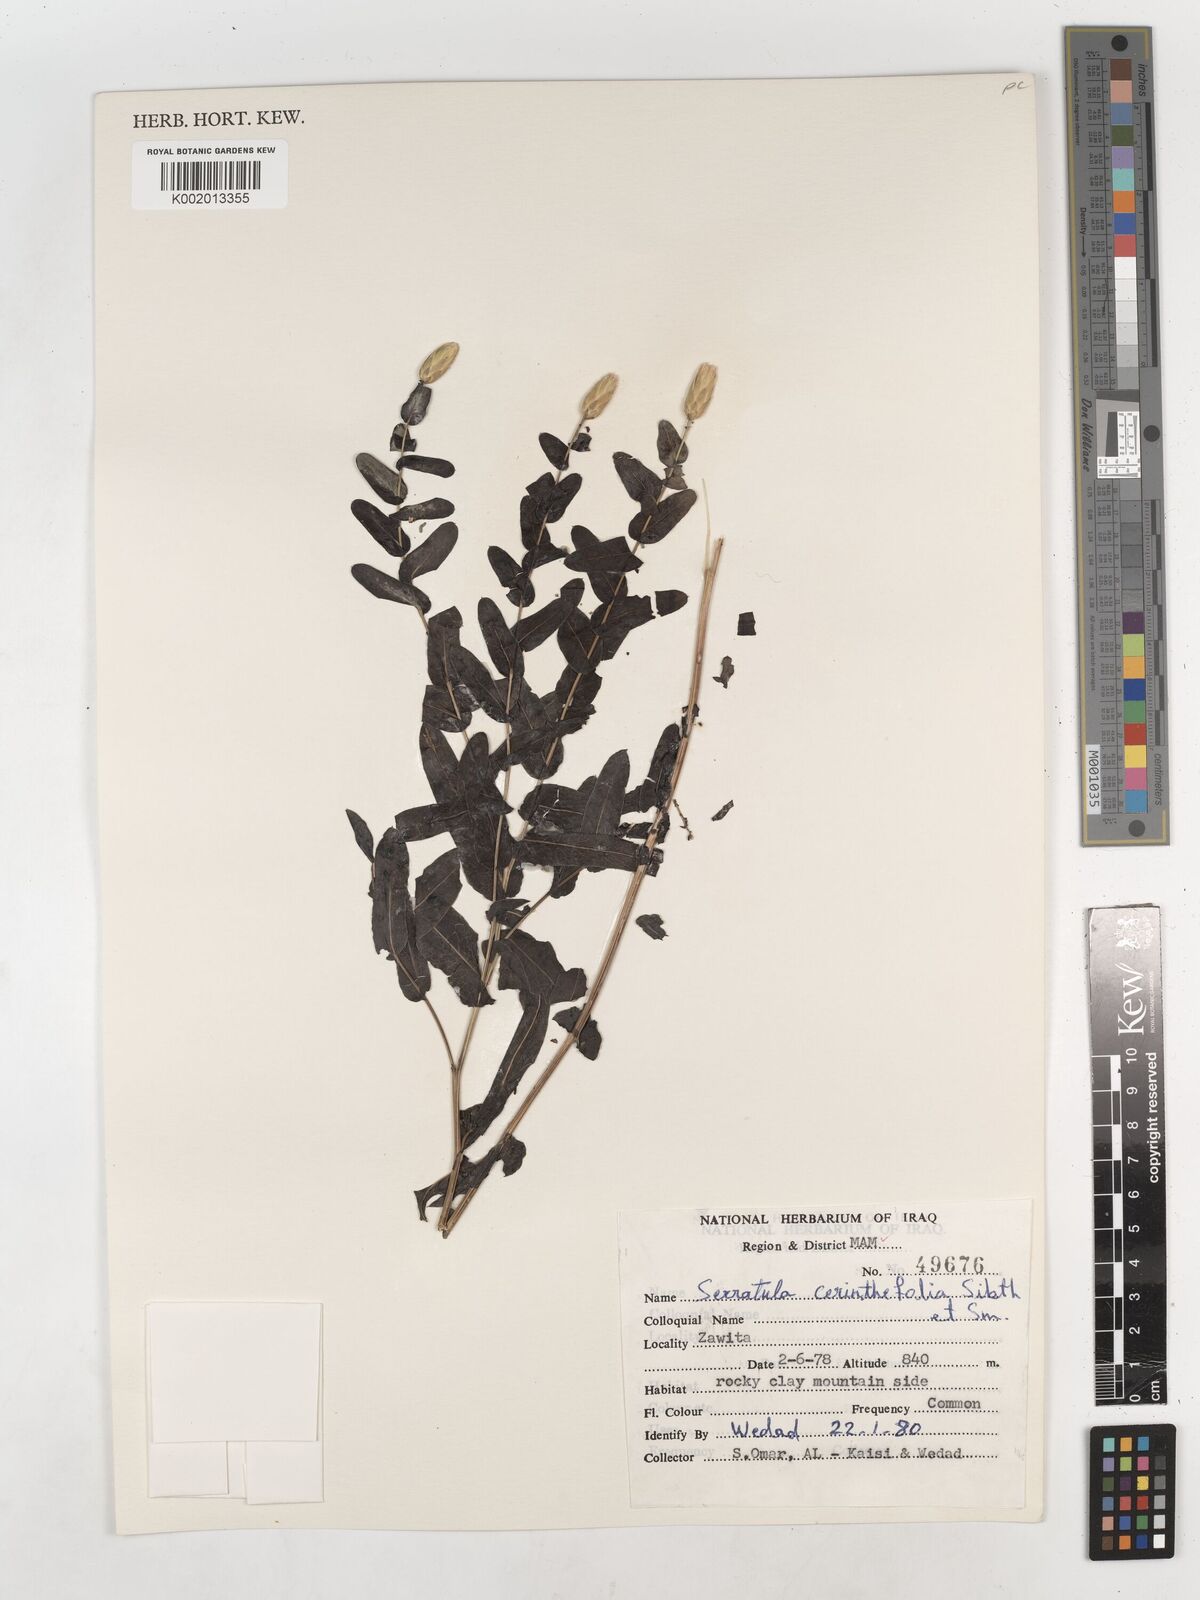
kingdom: Plantae
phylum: Tracheophyta
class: Magnoliopsida
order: Asterales
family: Asteraceae
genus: Klasea
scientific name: Klasea cerinthifolia
